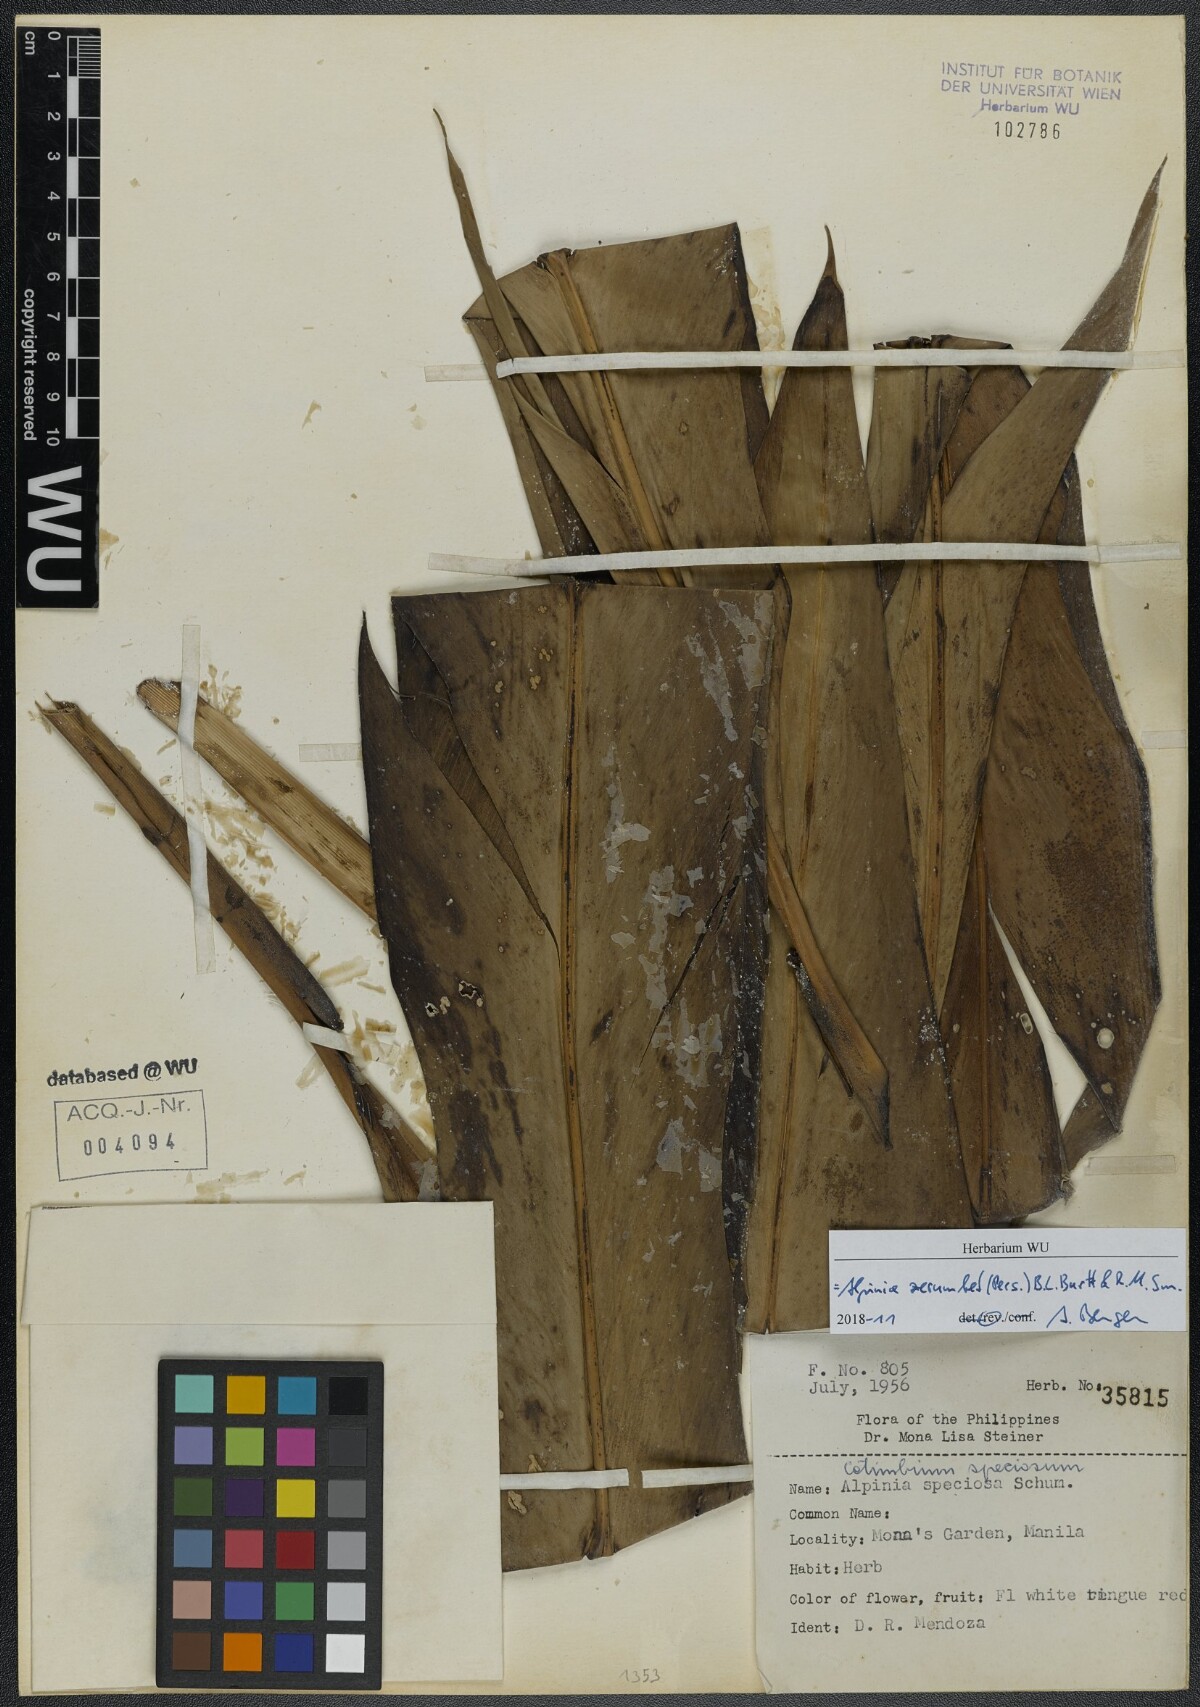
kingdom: Plantae
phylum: Tracheophyta
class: Liliopsida
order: Zingiberales
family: Zingiberaceae
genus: Alpinia
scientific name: Alpinia zerumbet
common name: Shellplant
